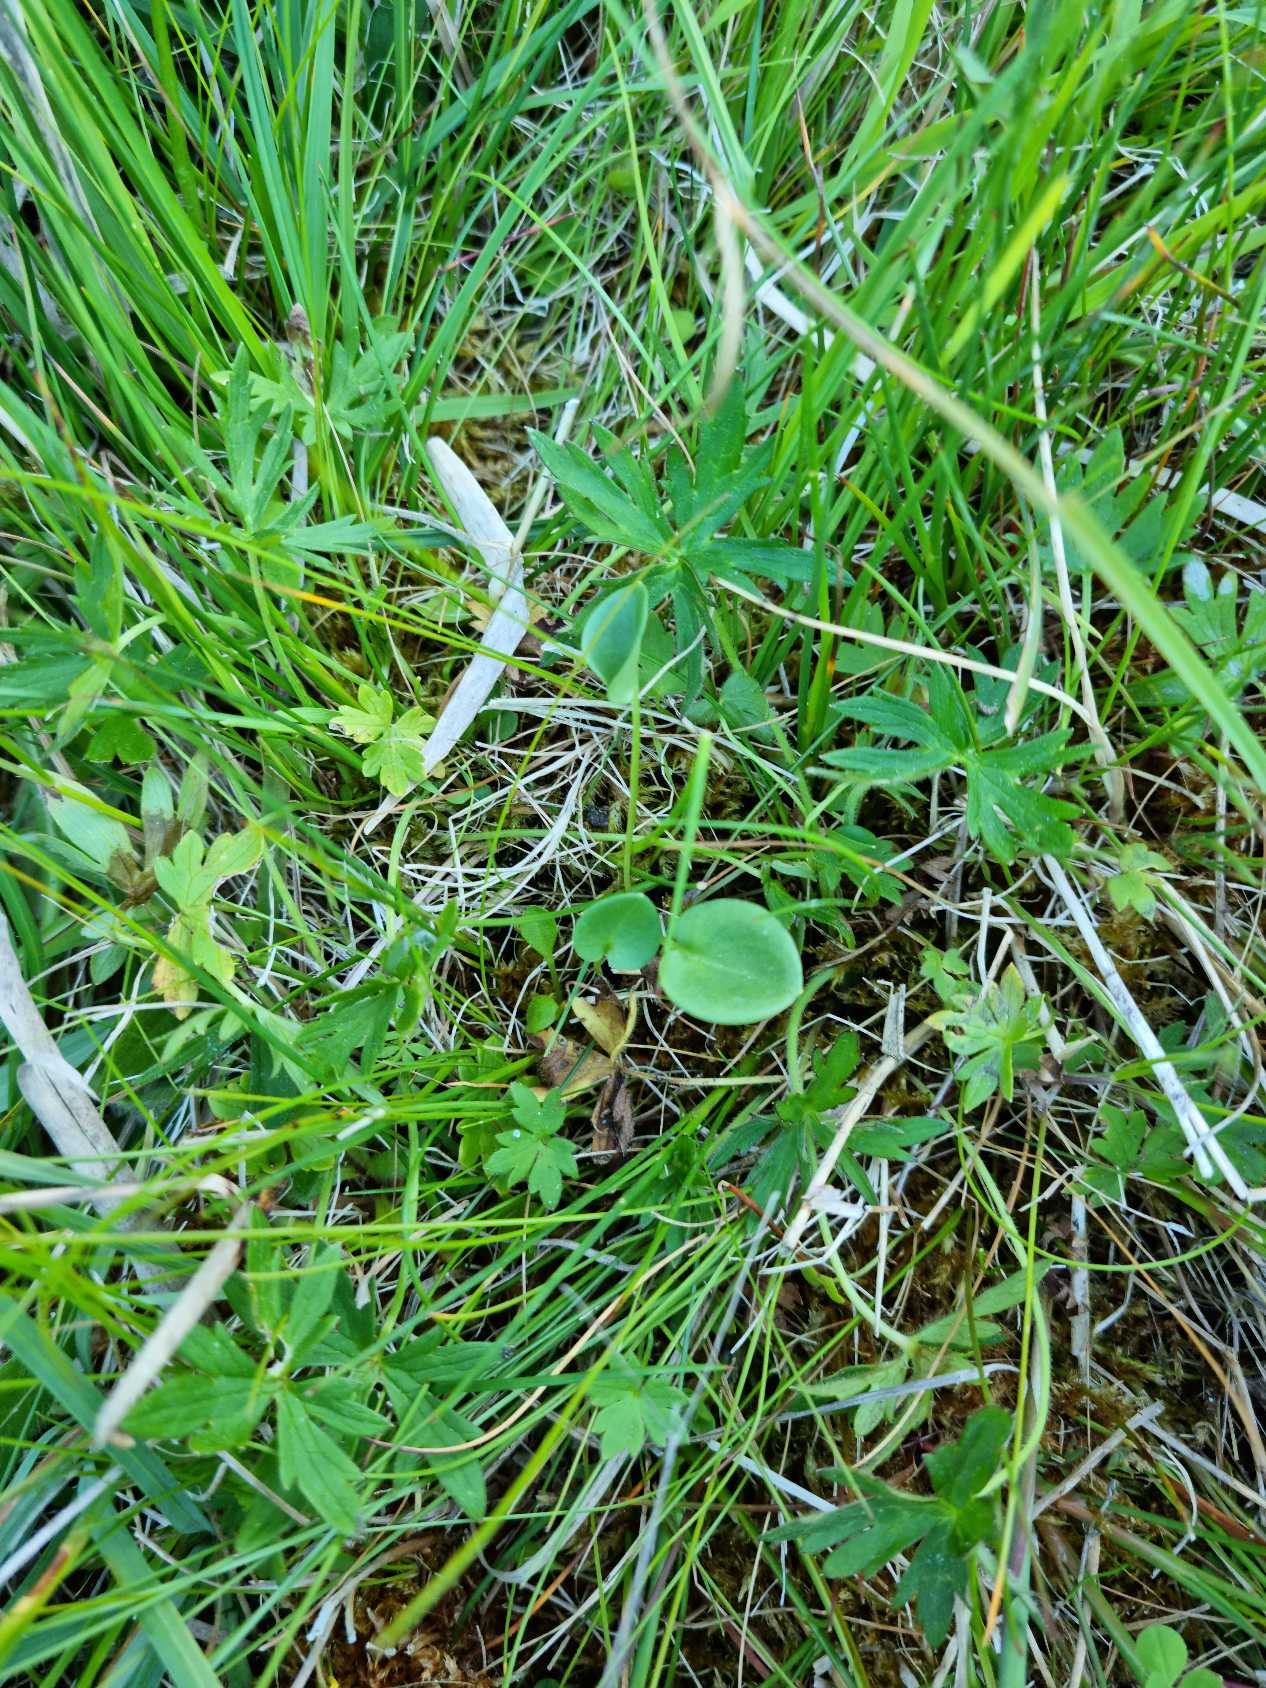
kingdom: Plantae
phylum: Tracheophyta
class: Magnoliopsida
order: Celastrales
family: Parnassiaceae
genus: Parnassia
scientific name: Parnassia palustris
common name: Leverurt
